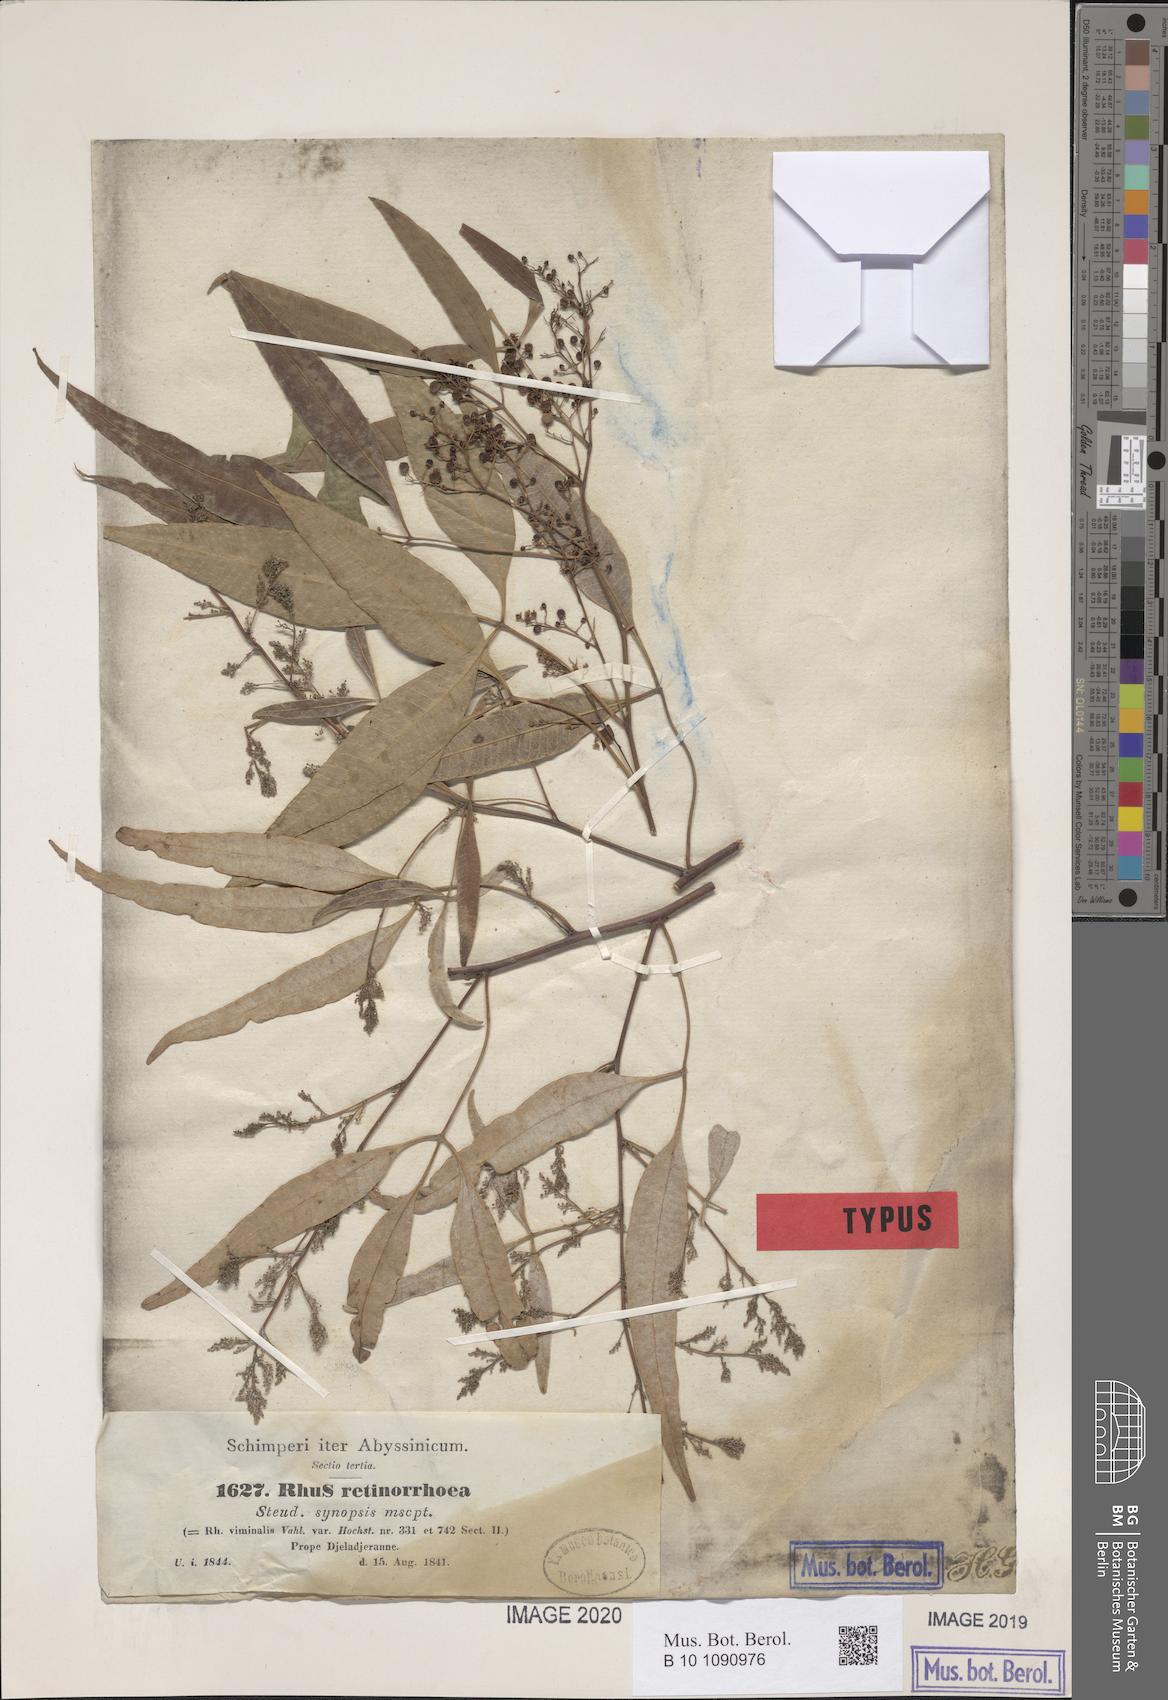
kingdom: Plantae
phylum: Tracheophyta
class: Magnoliopsida
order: Sapindales
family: Anacardiaceae
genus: Searsia
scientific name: Searsia retinorrhoea
